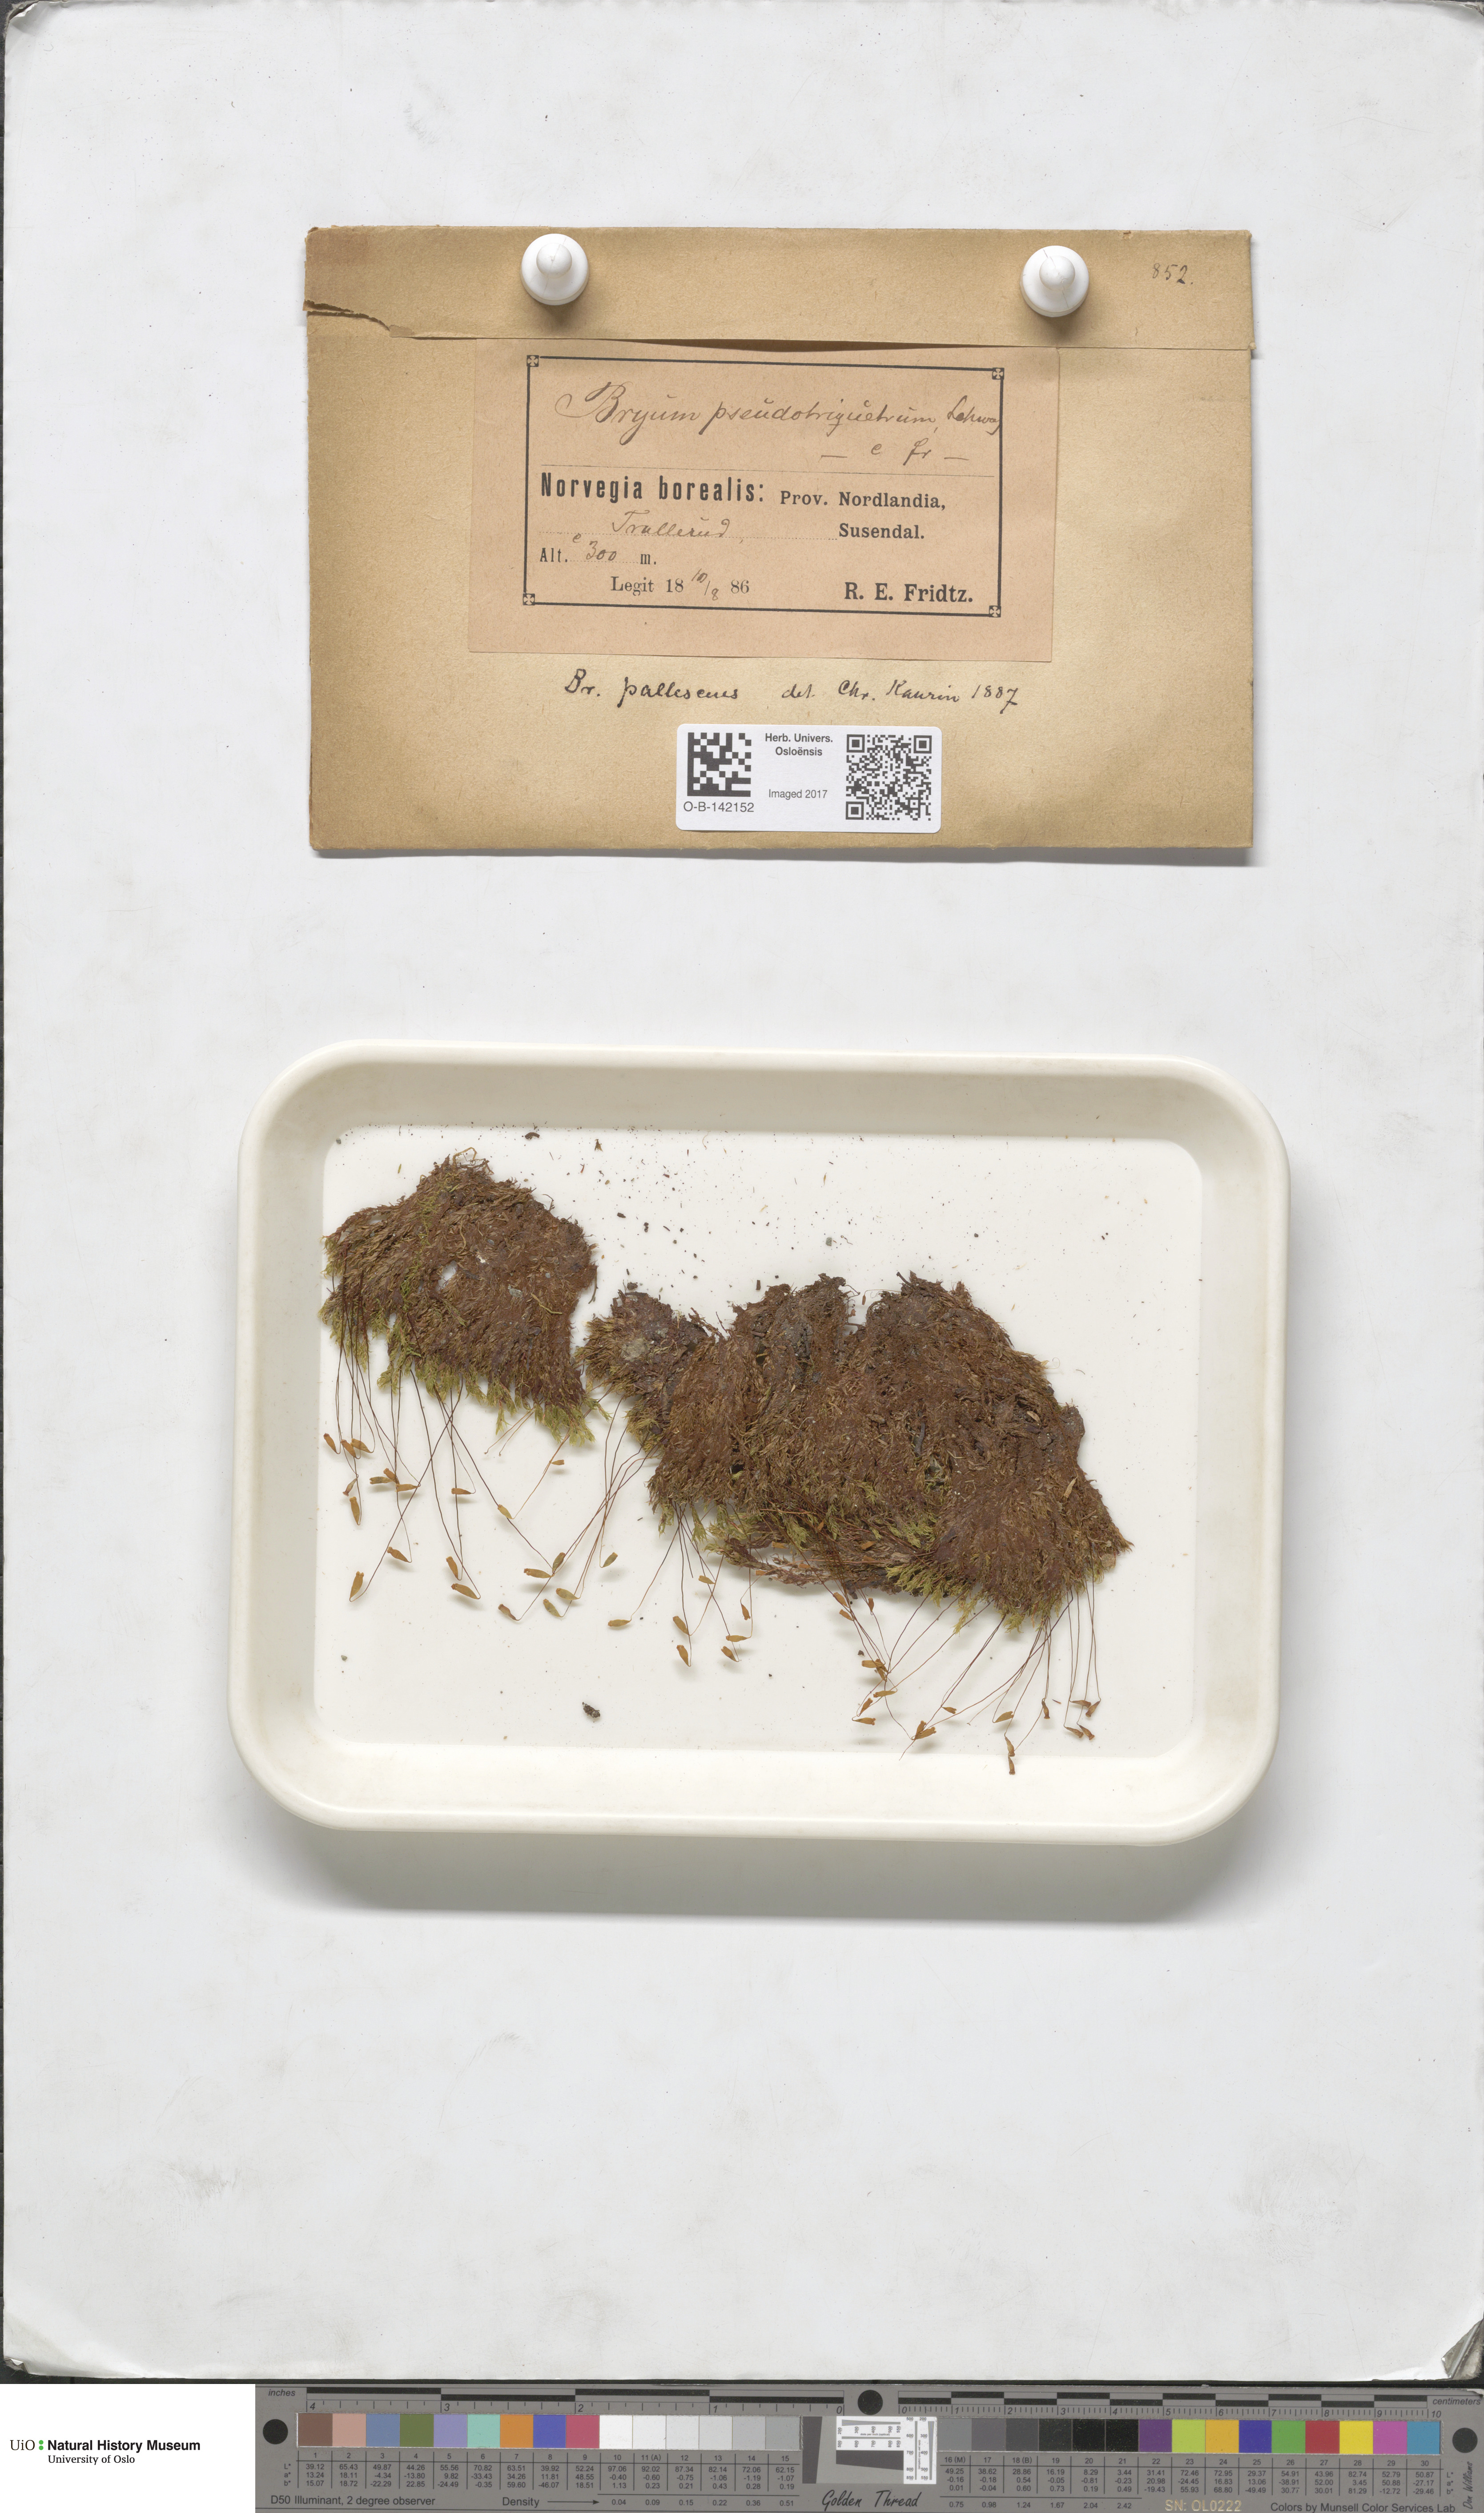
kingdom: Plantae
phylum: Bryophyta
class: Bryopsida
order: Bryales
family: Bryaceae
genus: Ptychostomum
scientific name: Ptychostomum pseudotriquetrum
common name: Long-leaved thread moss
